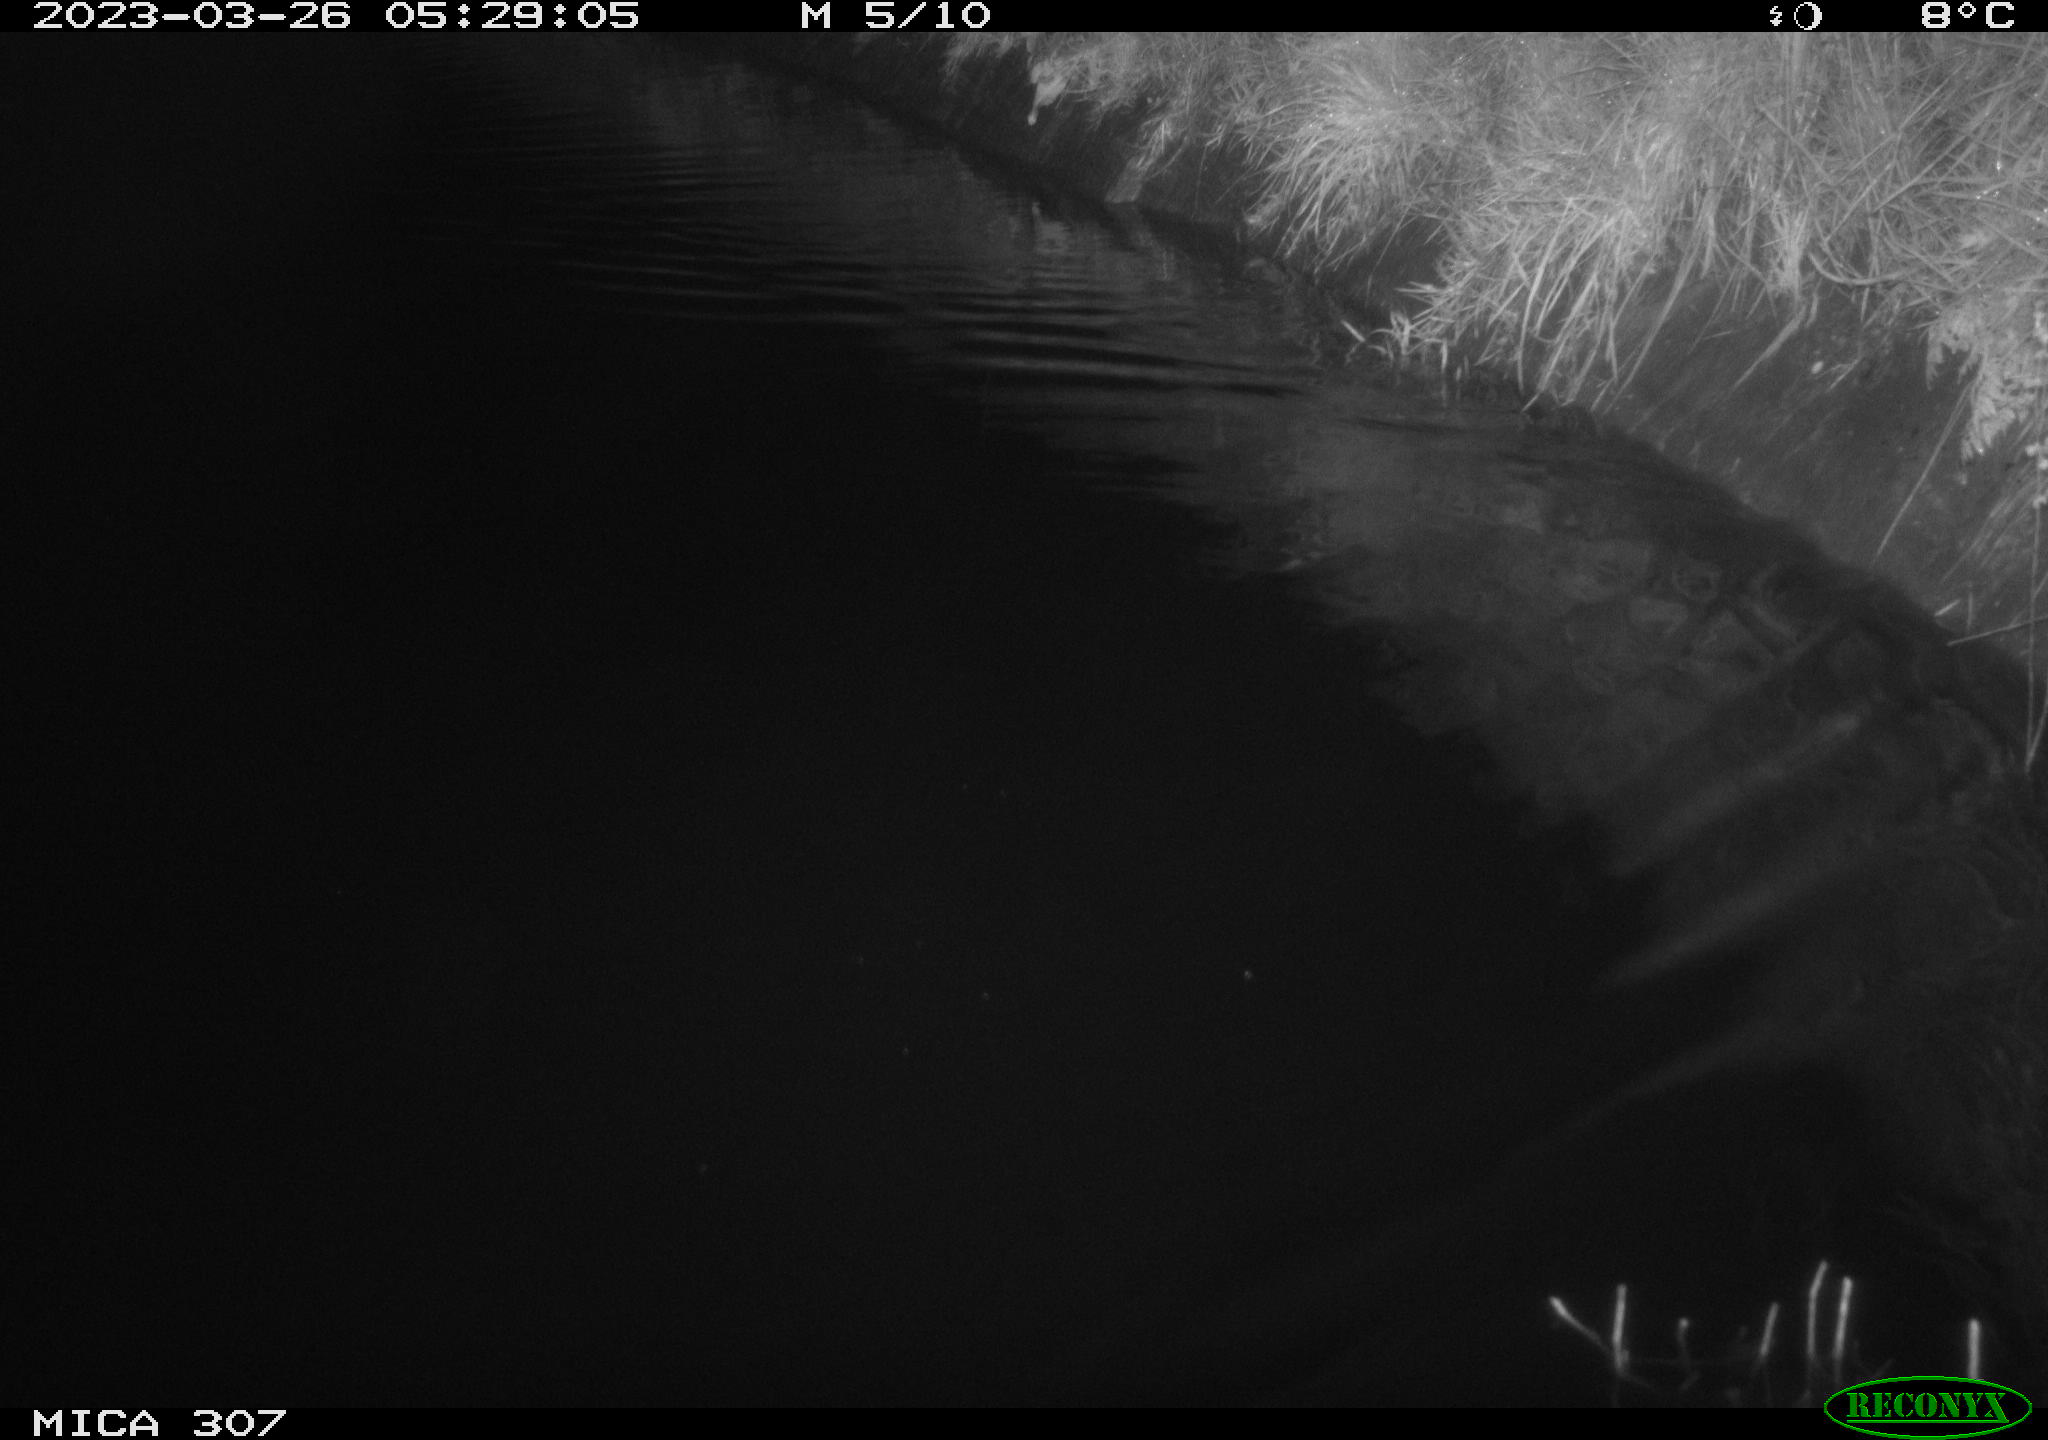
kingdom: Animalia
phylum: Chordata
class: Aves
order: Anseriformes
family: Anatidae
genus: Anas
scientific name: Anas
